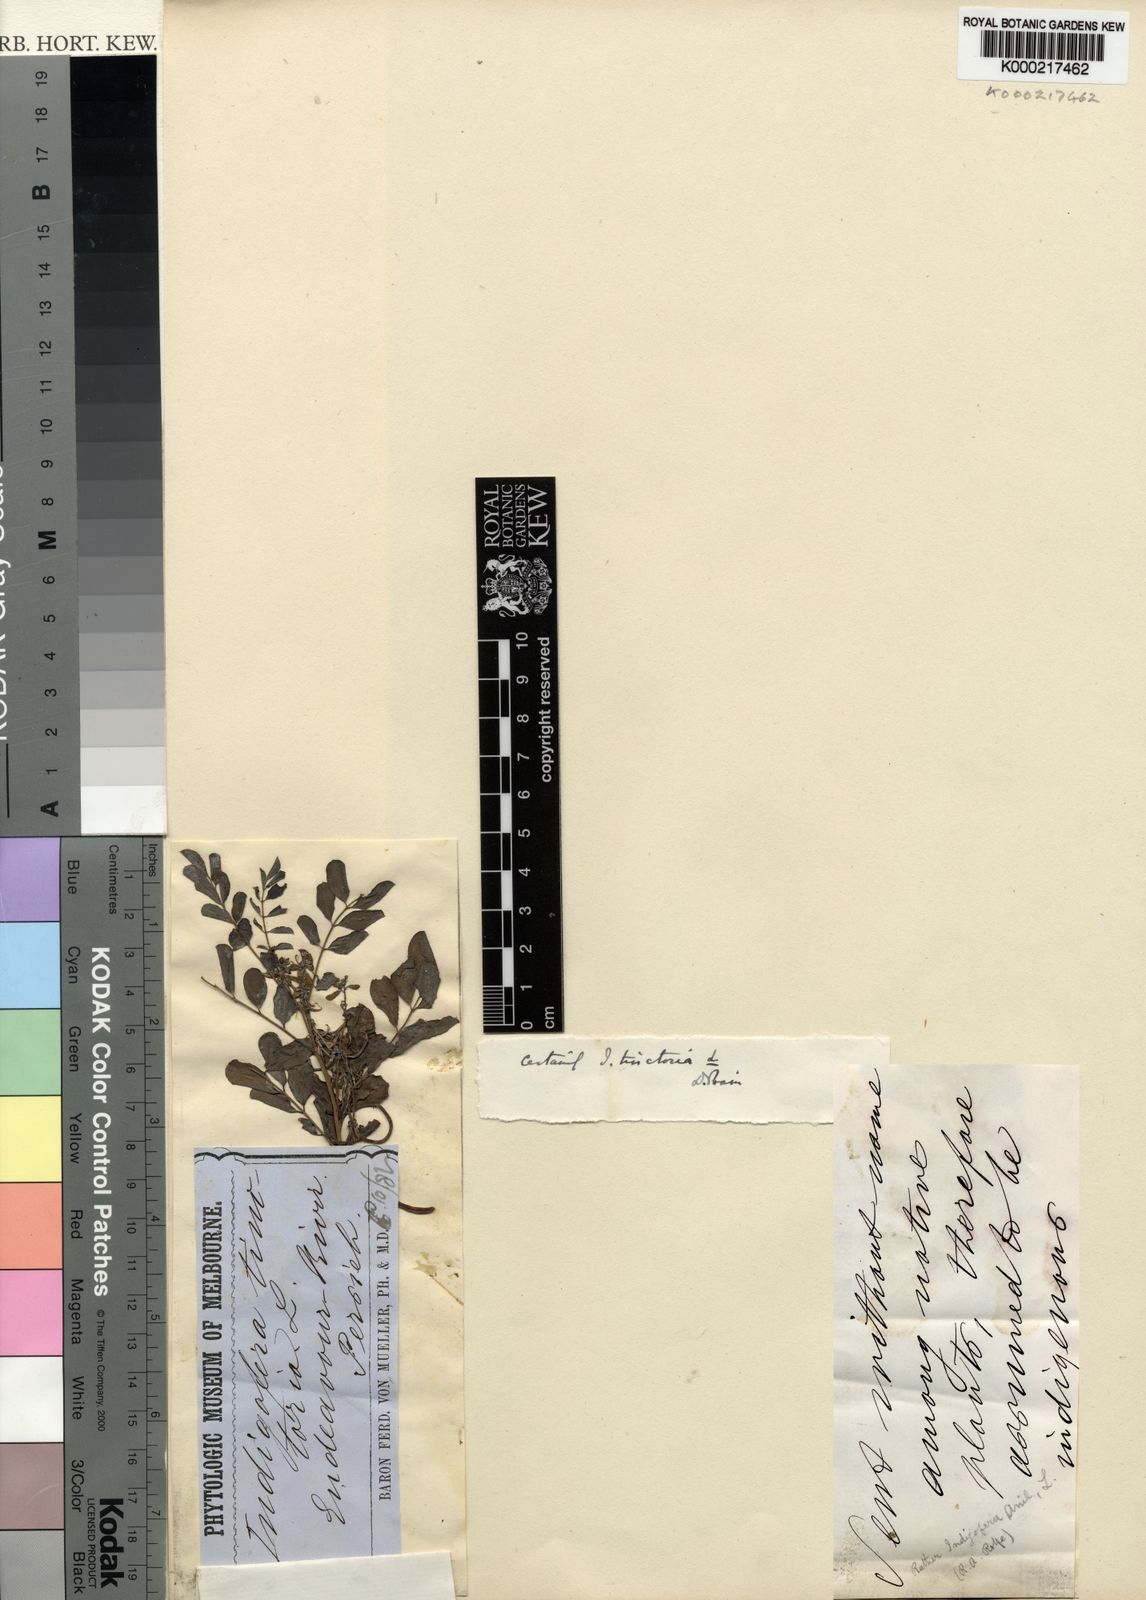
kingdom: Plantae
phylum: Tracheophyta
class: Magnoliopsida
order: Fabales
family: Fabaceae
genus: Indigofera
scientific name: Indigofera tinctoria
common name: True indigo
